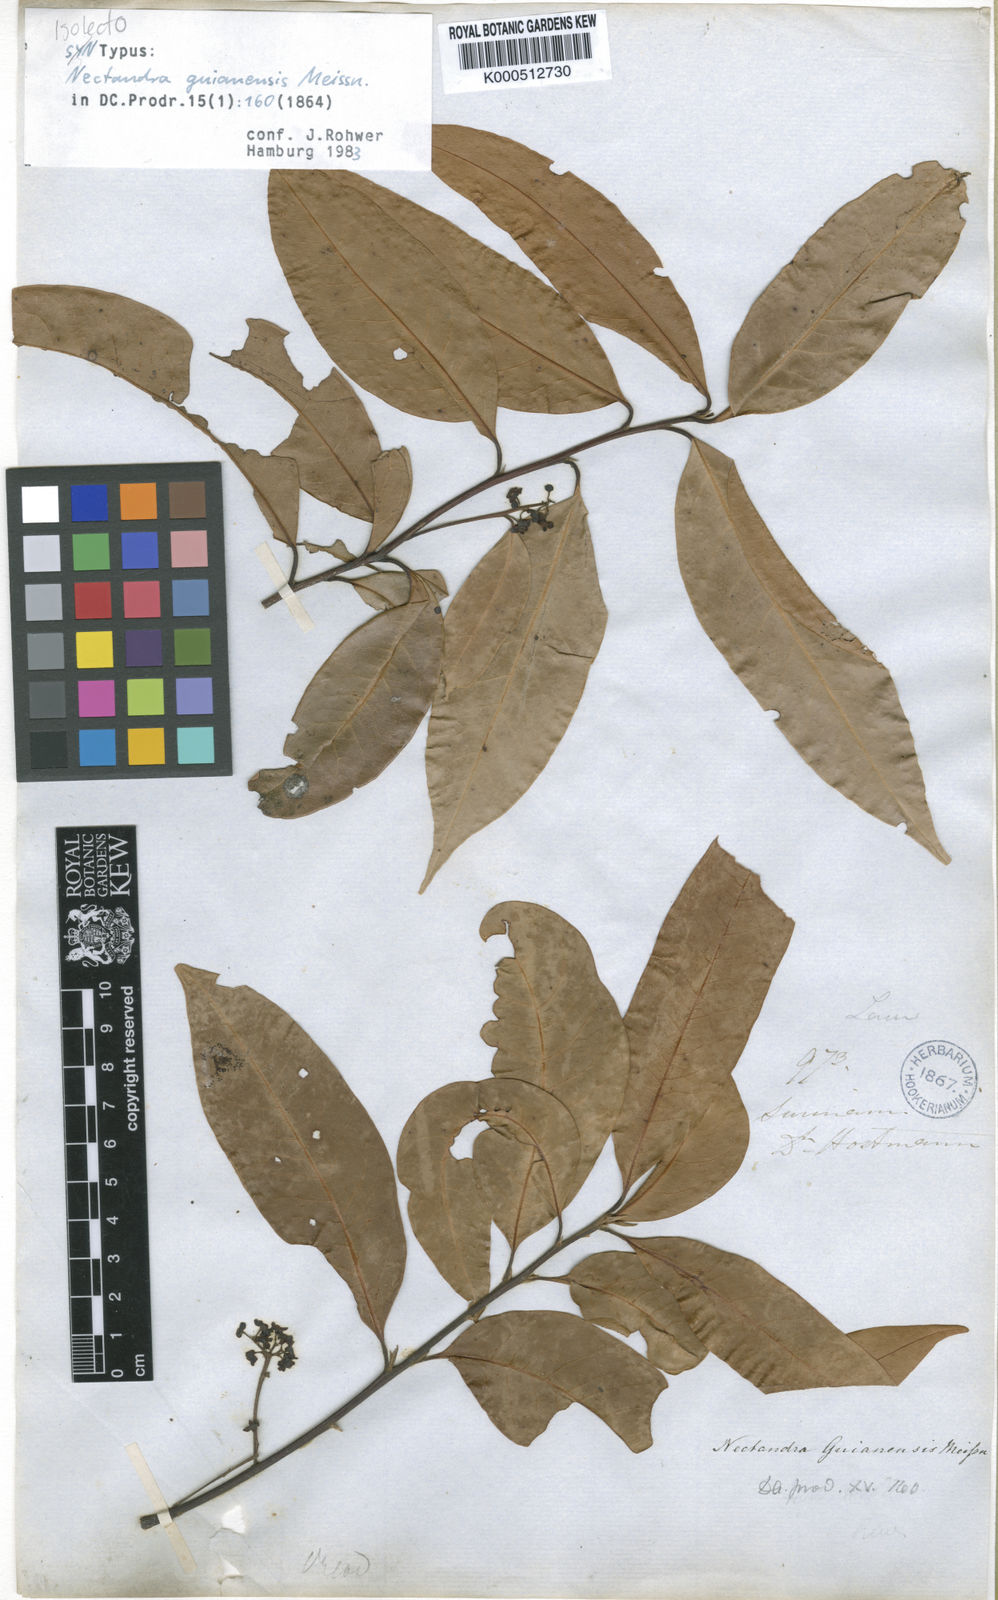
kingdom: Plantae
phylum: Tracheophyta
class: Magnoliopsida
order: Laurales
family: Lauraceae
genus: Nectandra
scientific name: Nectandra sanguinea
